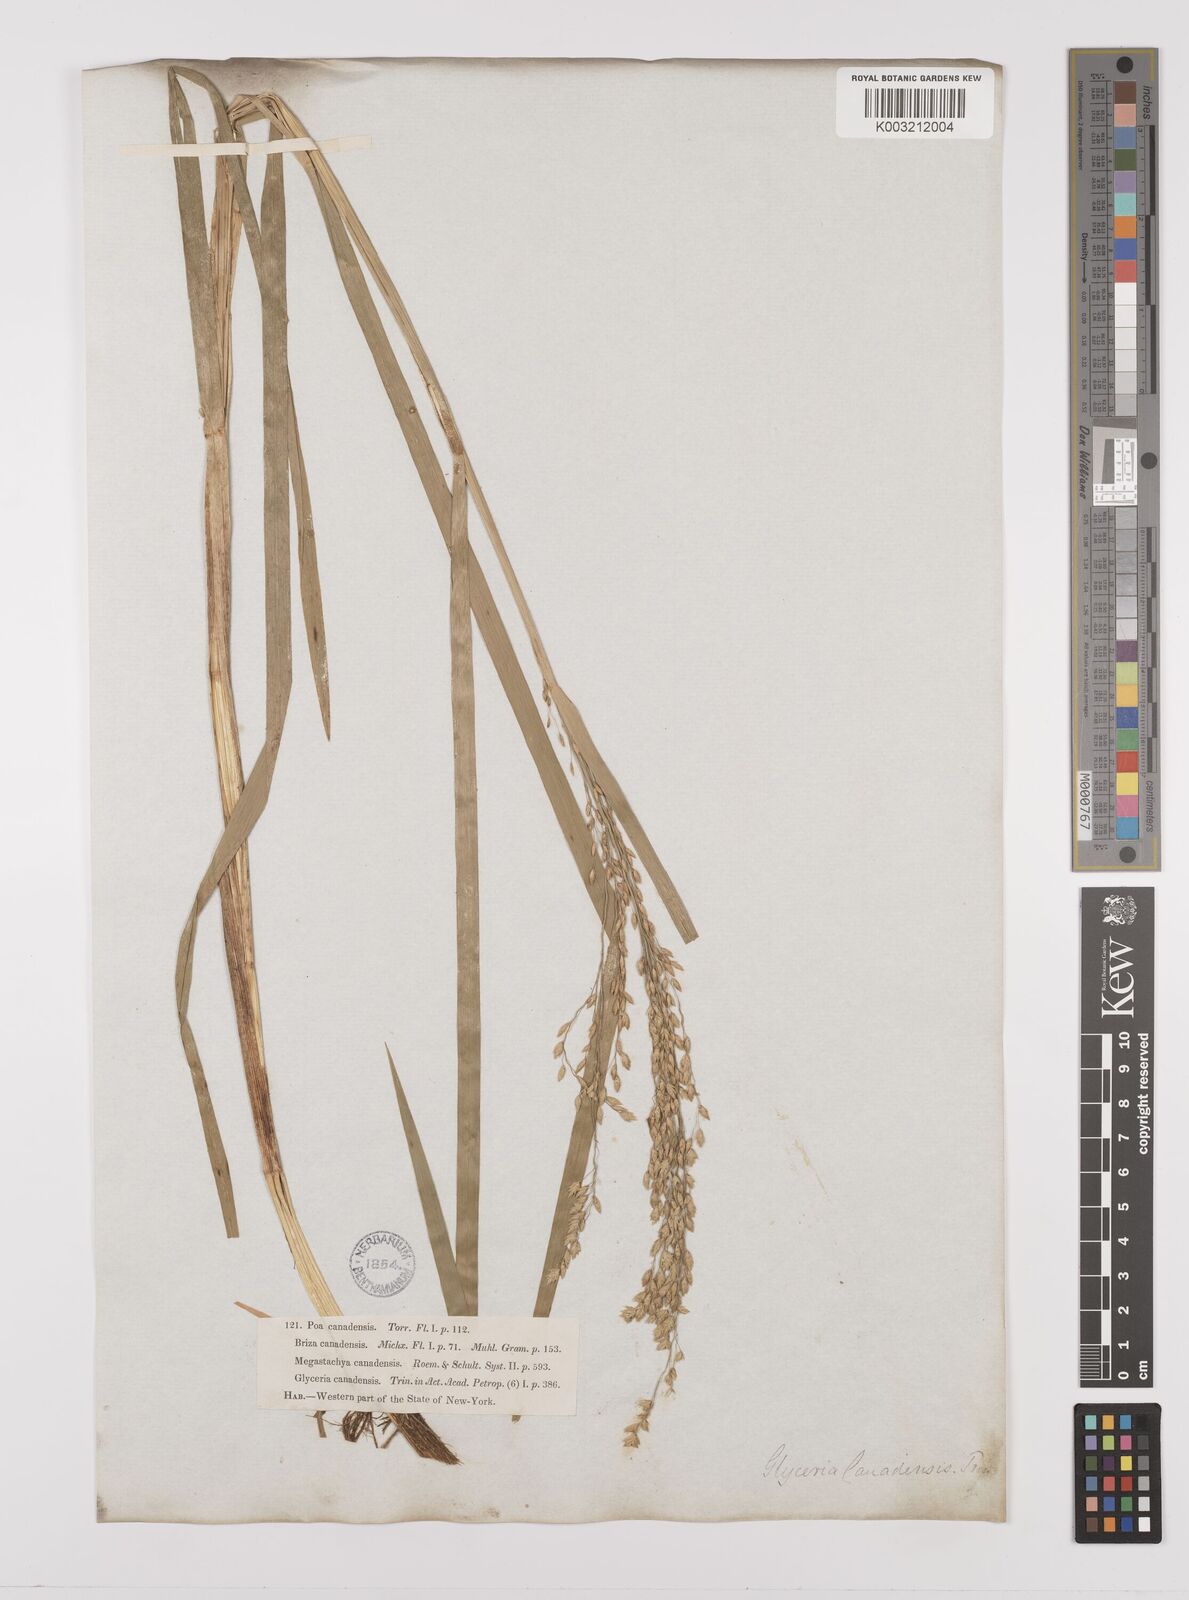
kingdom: Plantae
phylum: Tracheophyta
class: Liliopsida
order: Poales
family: Poaceae
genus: Glyceria
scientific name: Glyceria canadensis
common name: Canada mannagrass
